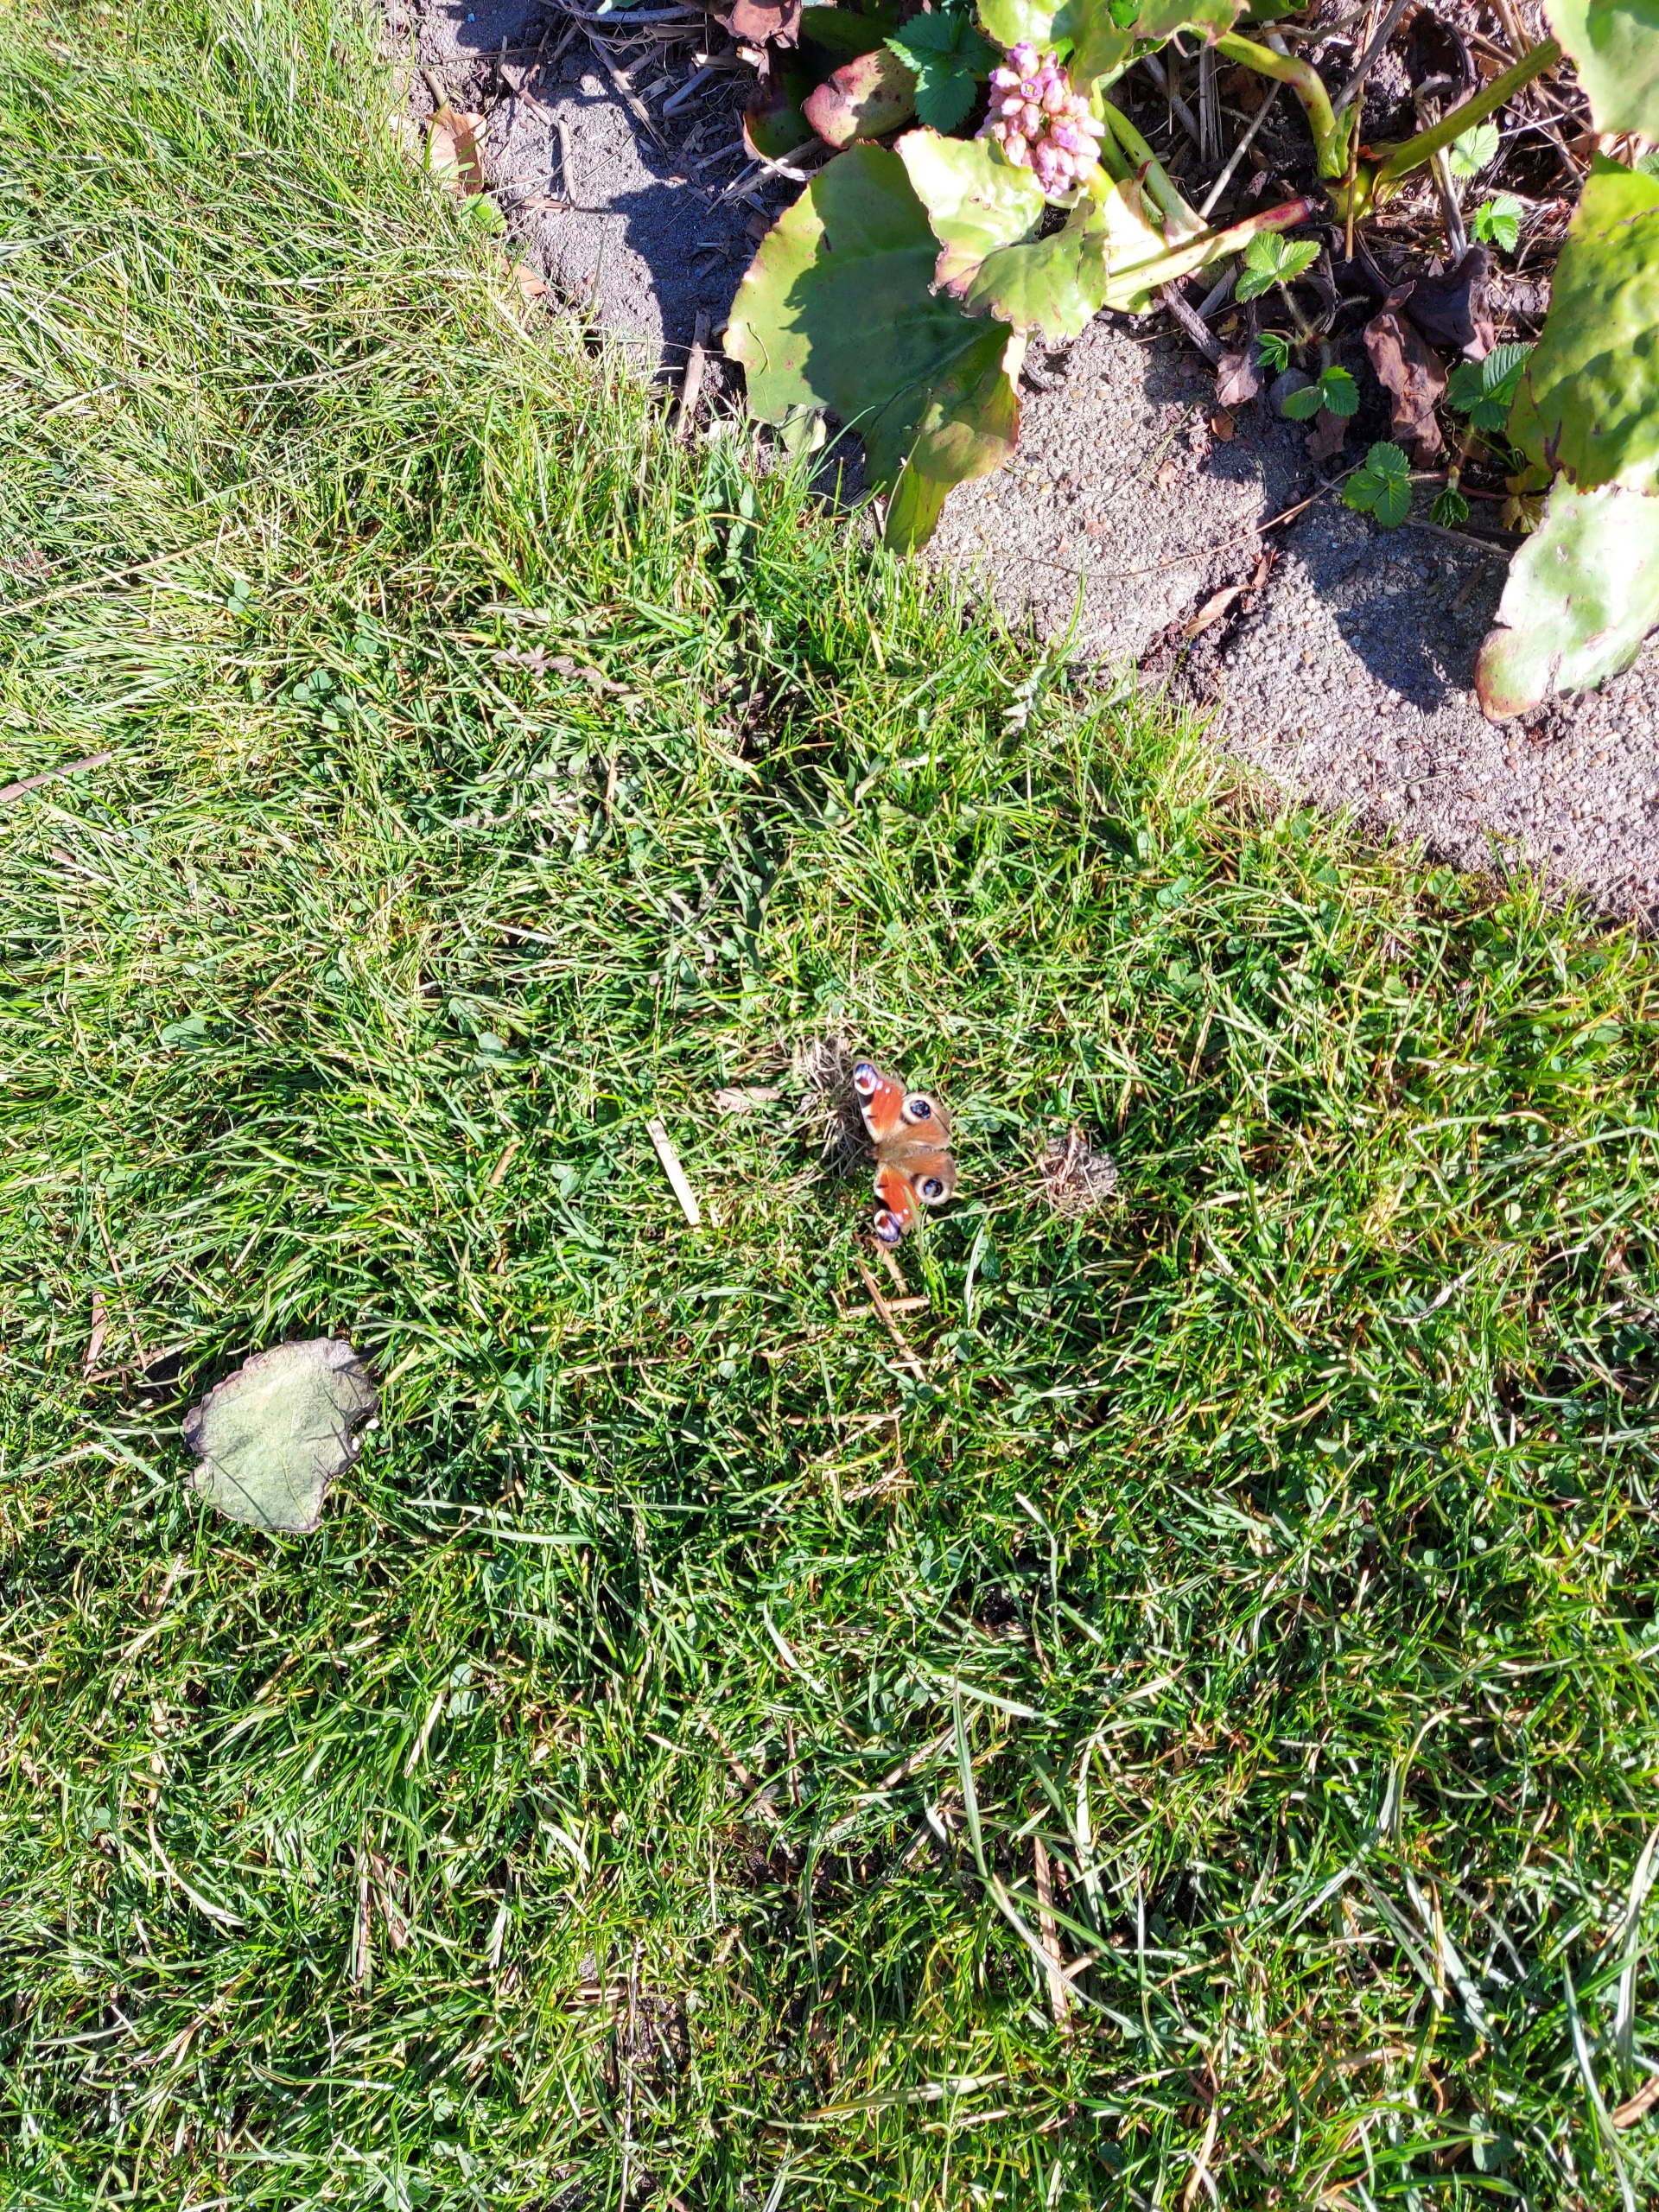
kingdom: Animalia
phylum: Arthropoda
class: Insecta
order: Lepidoptera
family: Nymphalidae
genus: Aglais
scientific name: Aglais io
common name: Dagpåfugleøje
